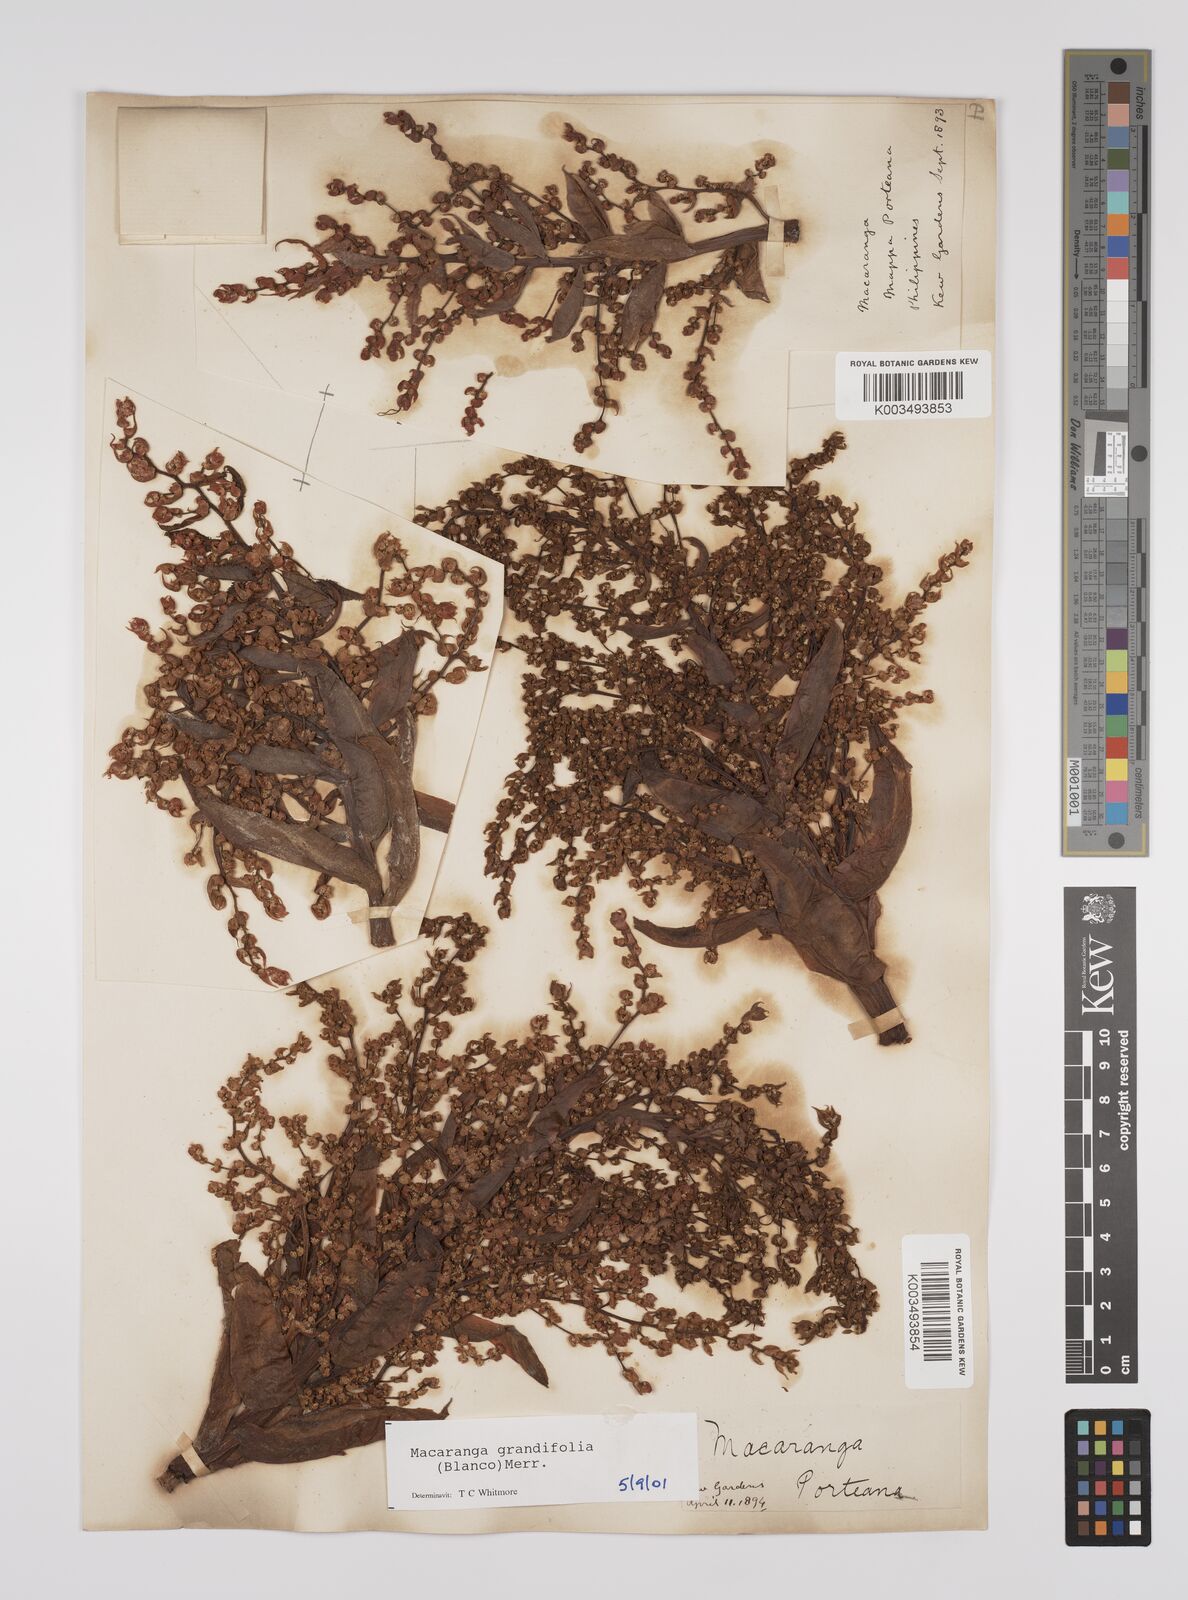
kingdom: Plantae
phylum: Tracheophyta
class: Magnoliopsida
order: Malpighiales
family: Euphorbiaceae
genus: Macaranga
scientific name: Macaranga grandifolia
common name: Coraltree
